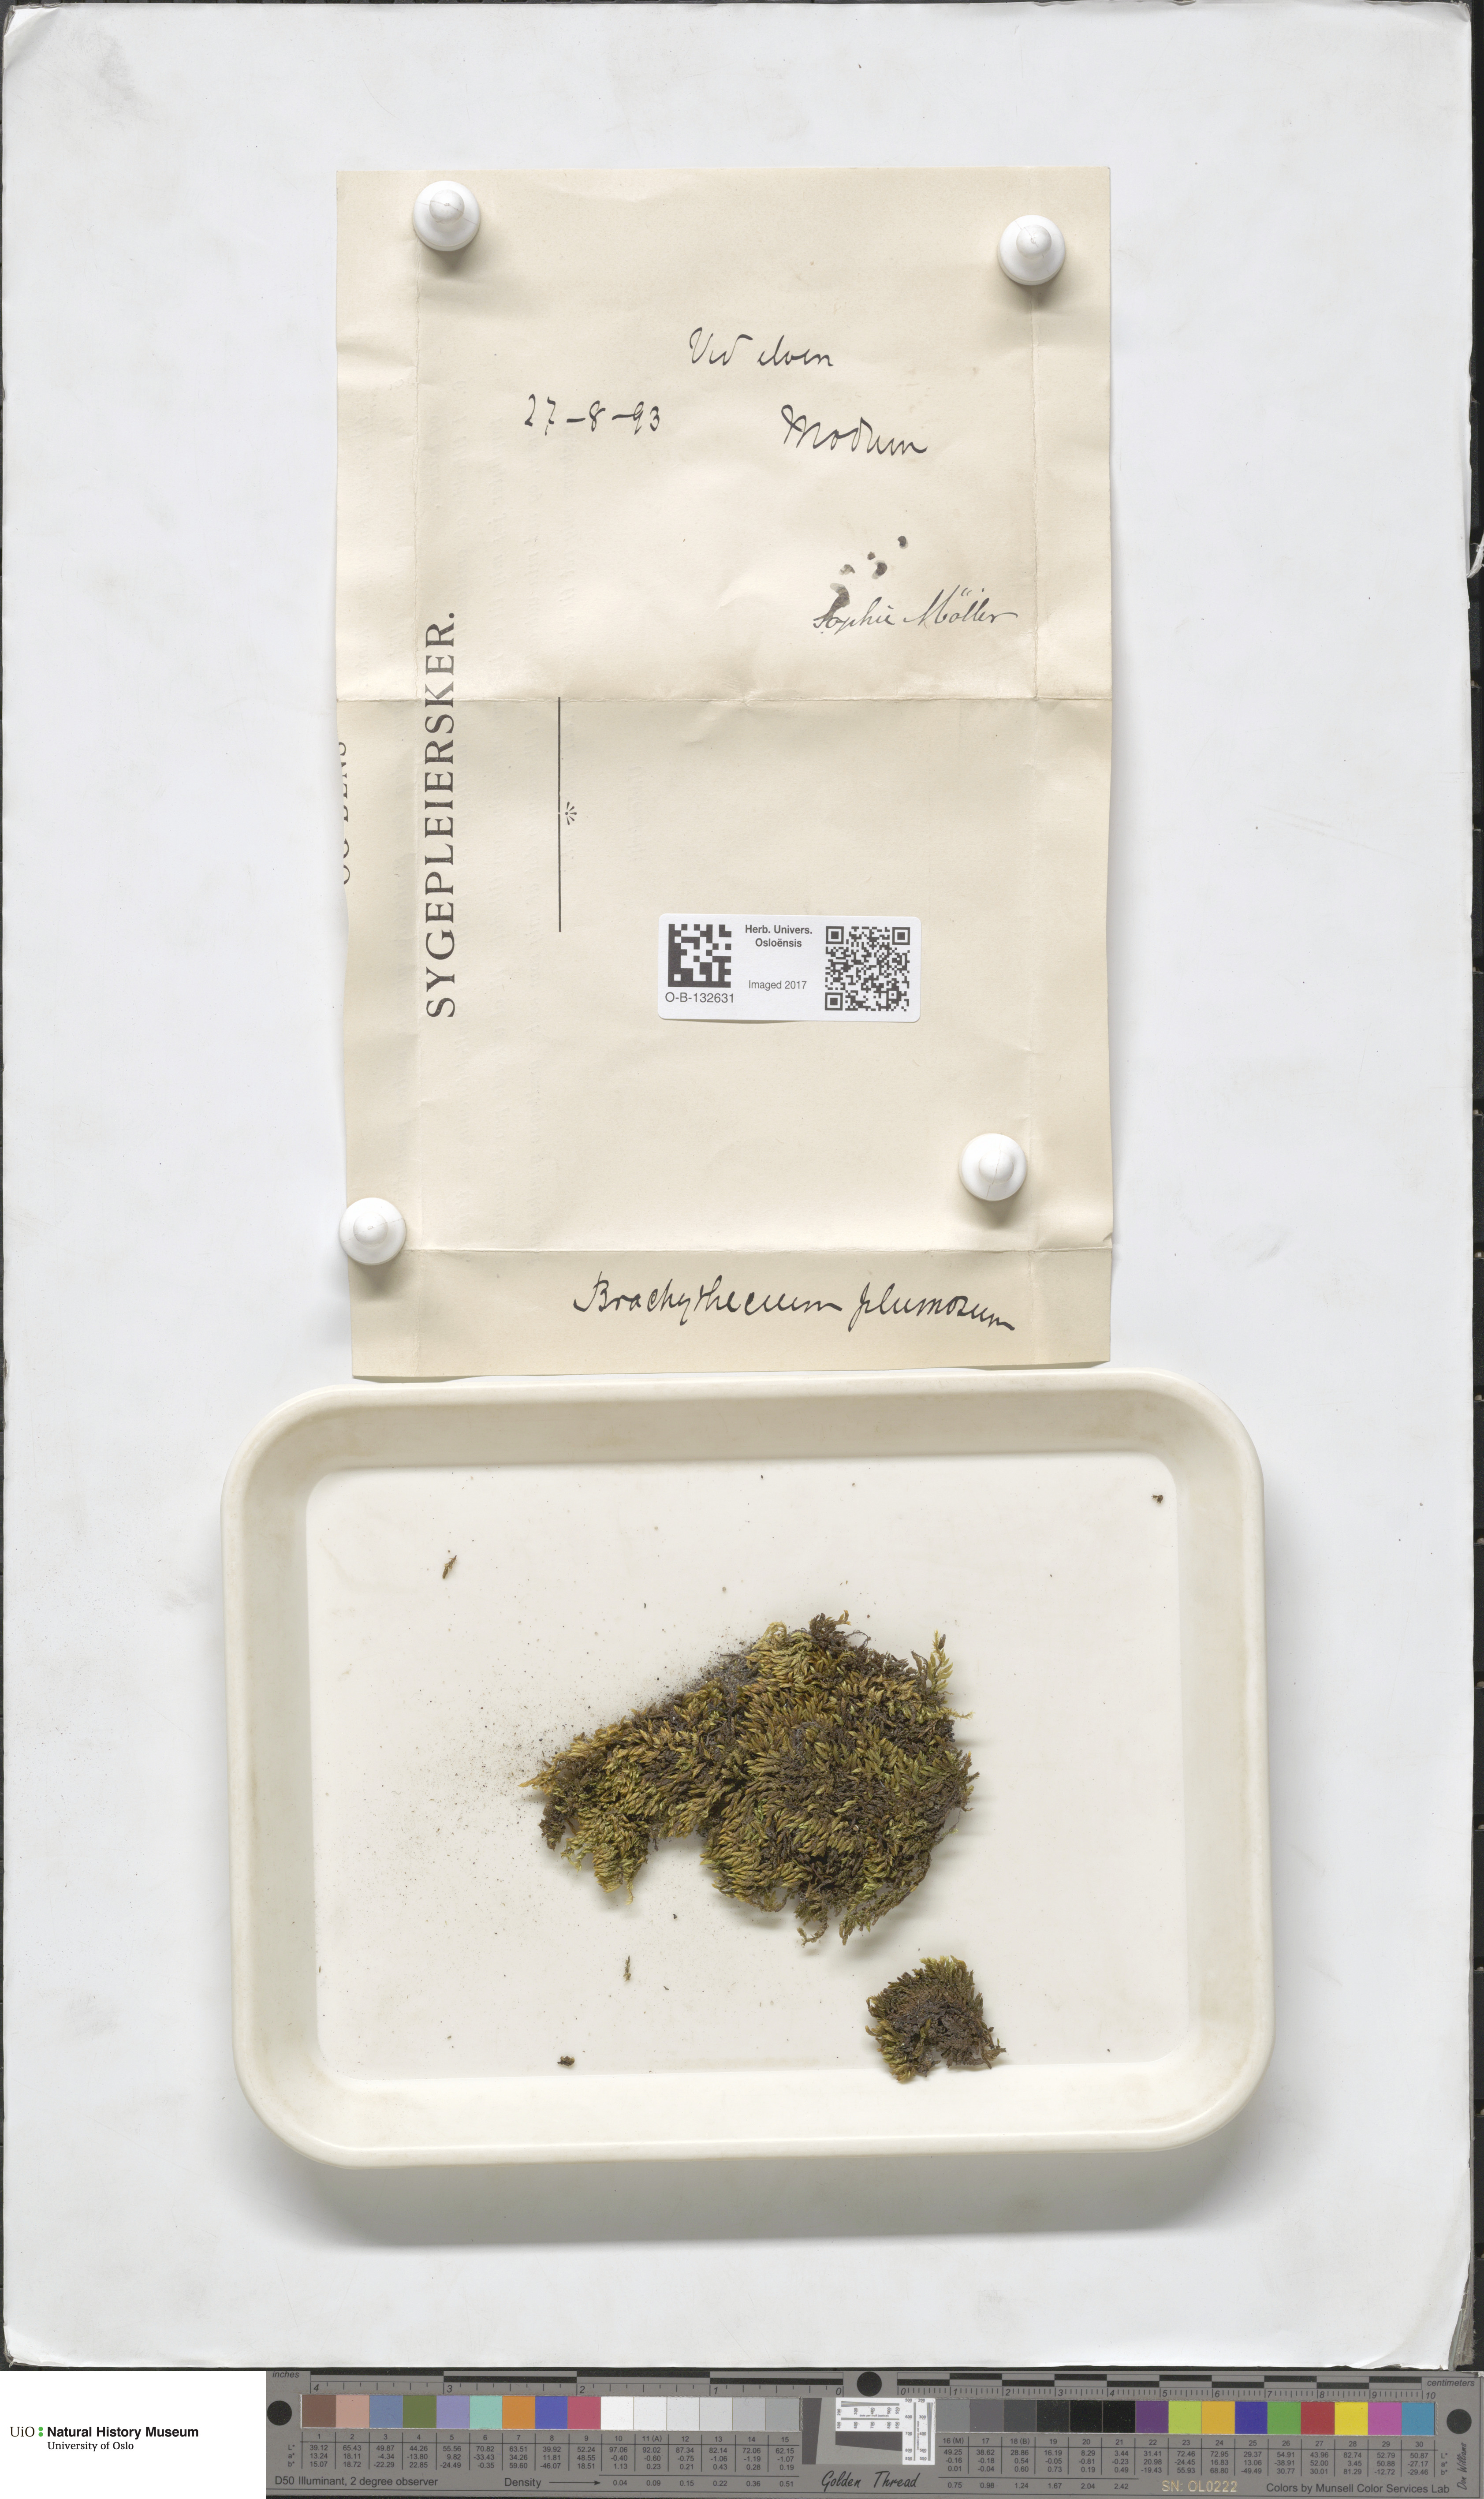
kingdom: Plantae
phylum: Bryophyta
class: Bryopsida
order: Hypnales
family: Brachytheciaceae
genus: Sciuro-hypnum
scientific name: Sciuro-hypnum plumosum
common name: Rusty feather-moss
